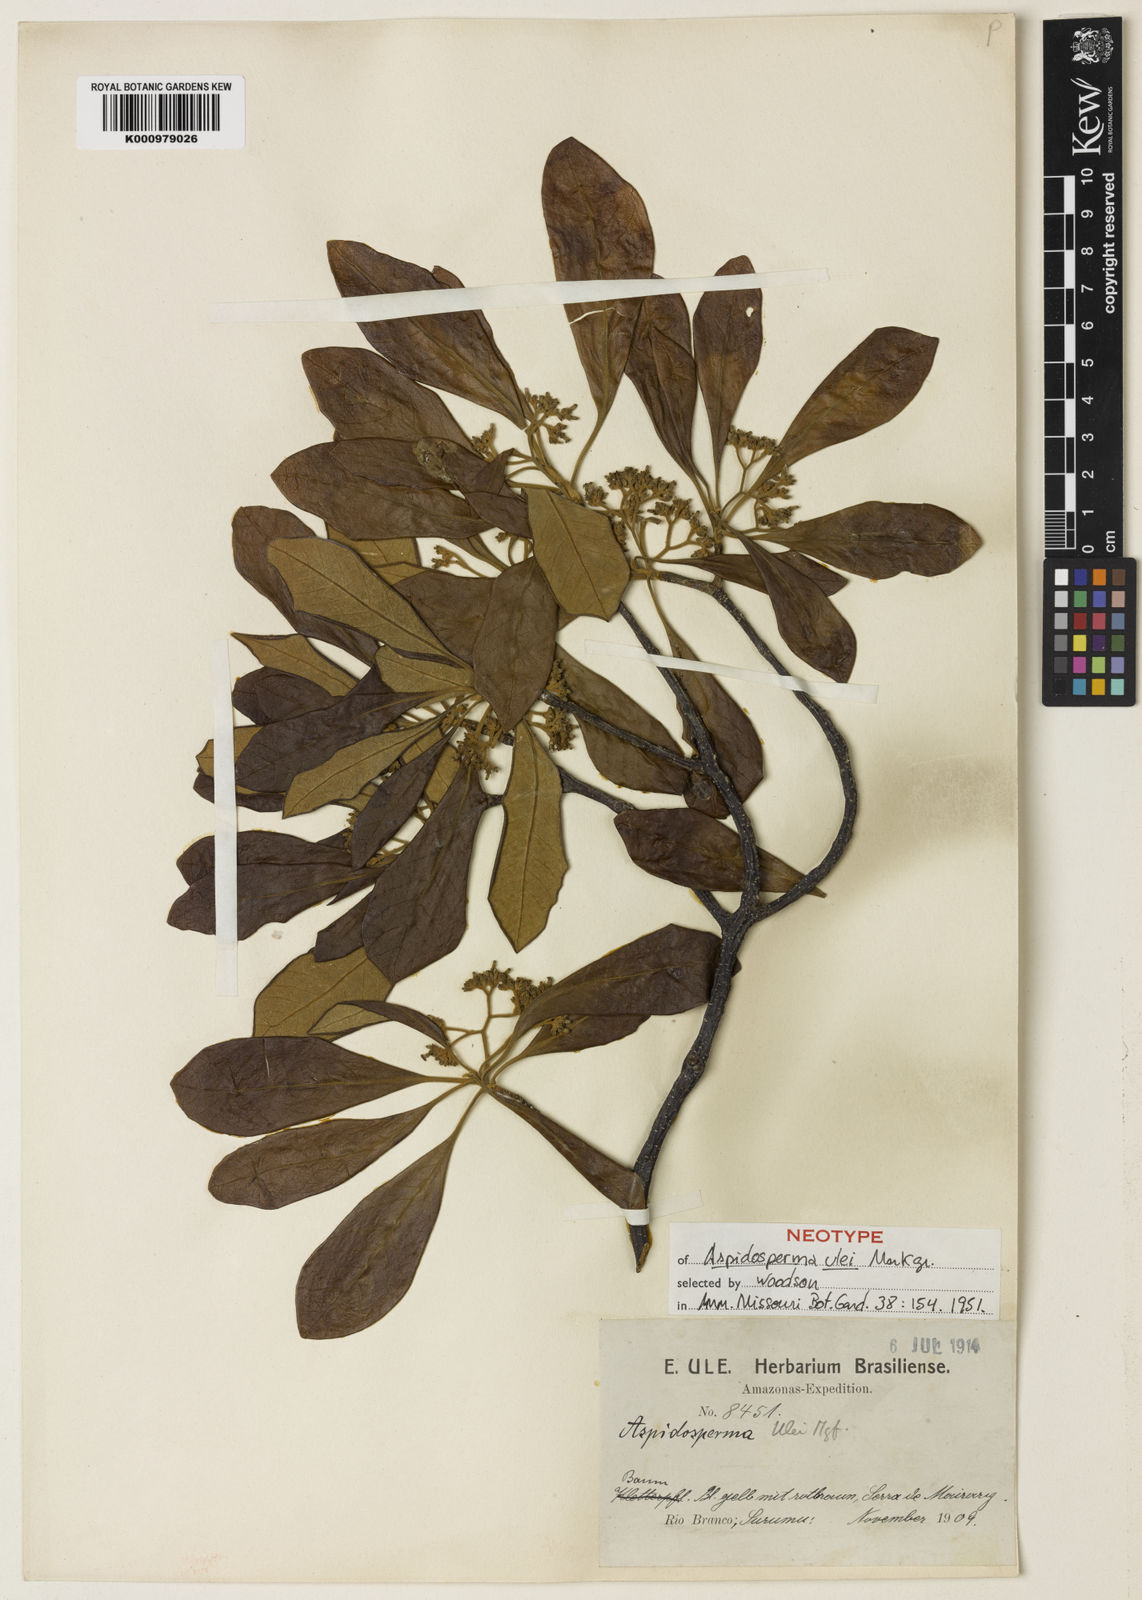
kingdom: Plantae
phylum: Tracheophyta
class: Magnoliopsida
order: Gentianales
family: Apocynaceae
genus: Aspidosperma
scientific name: Aspidosperma ulei
